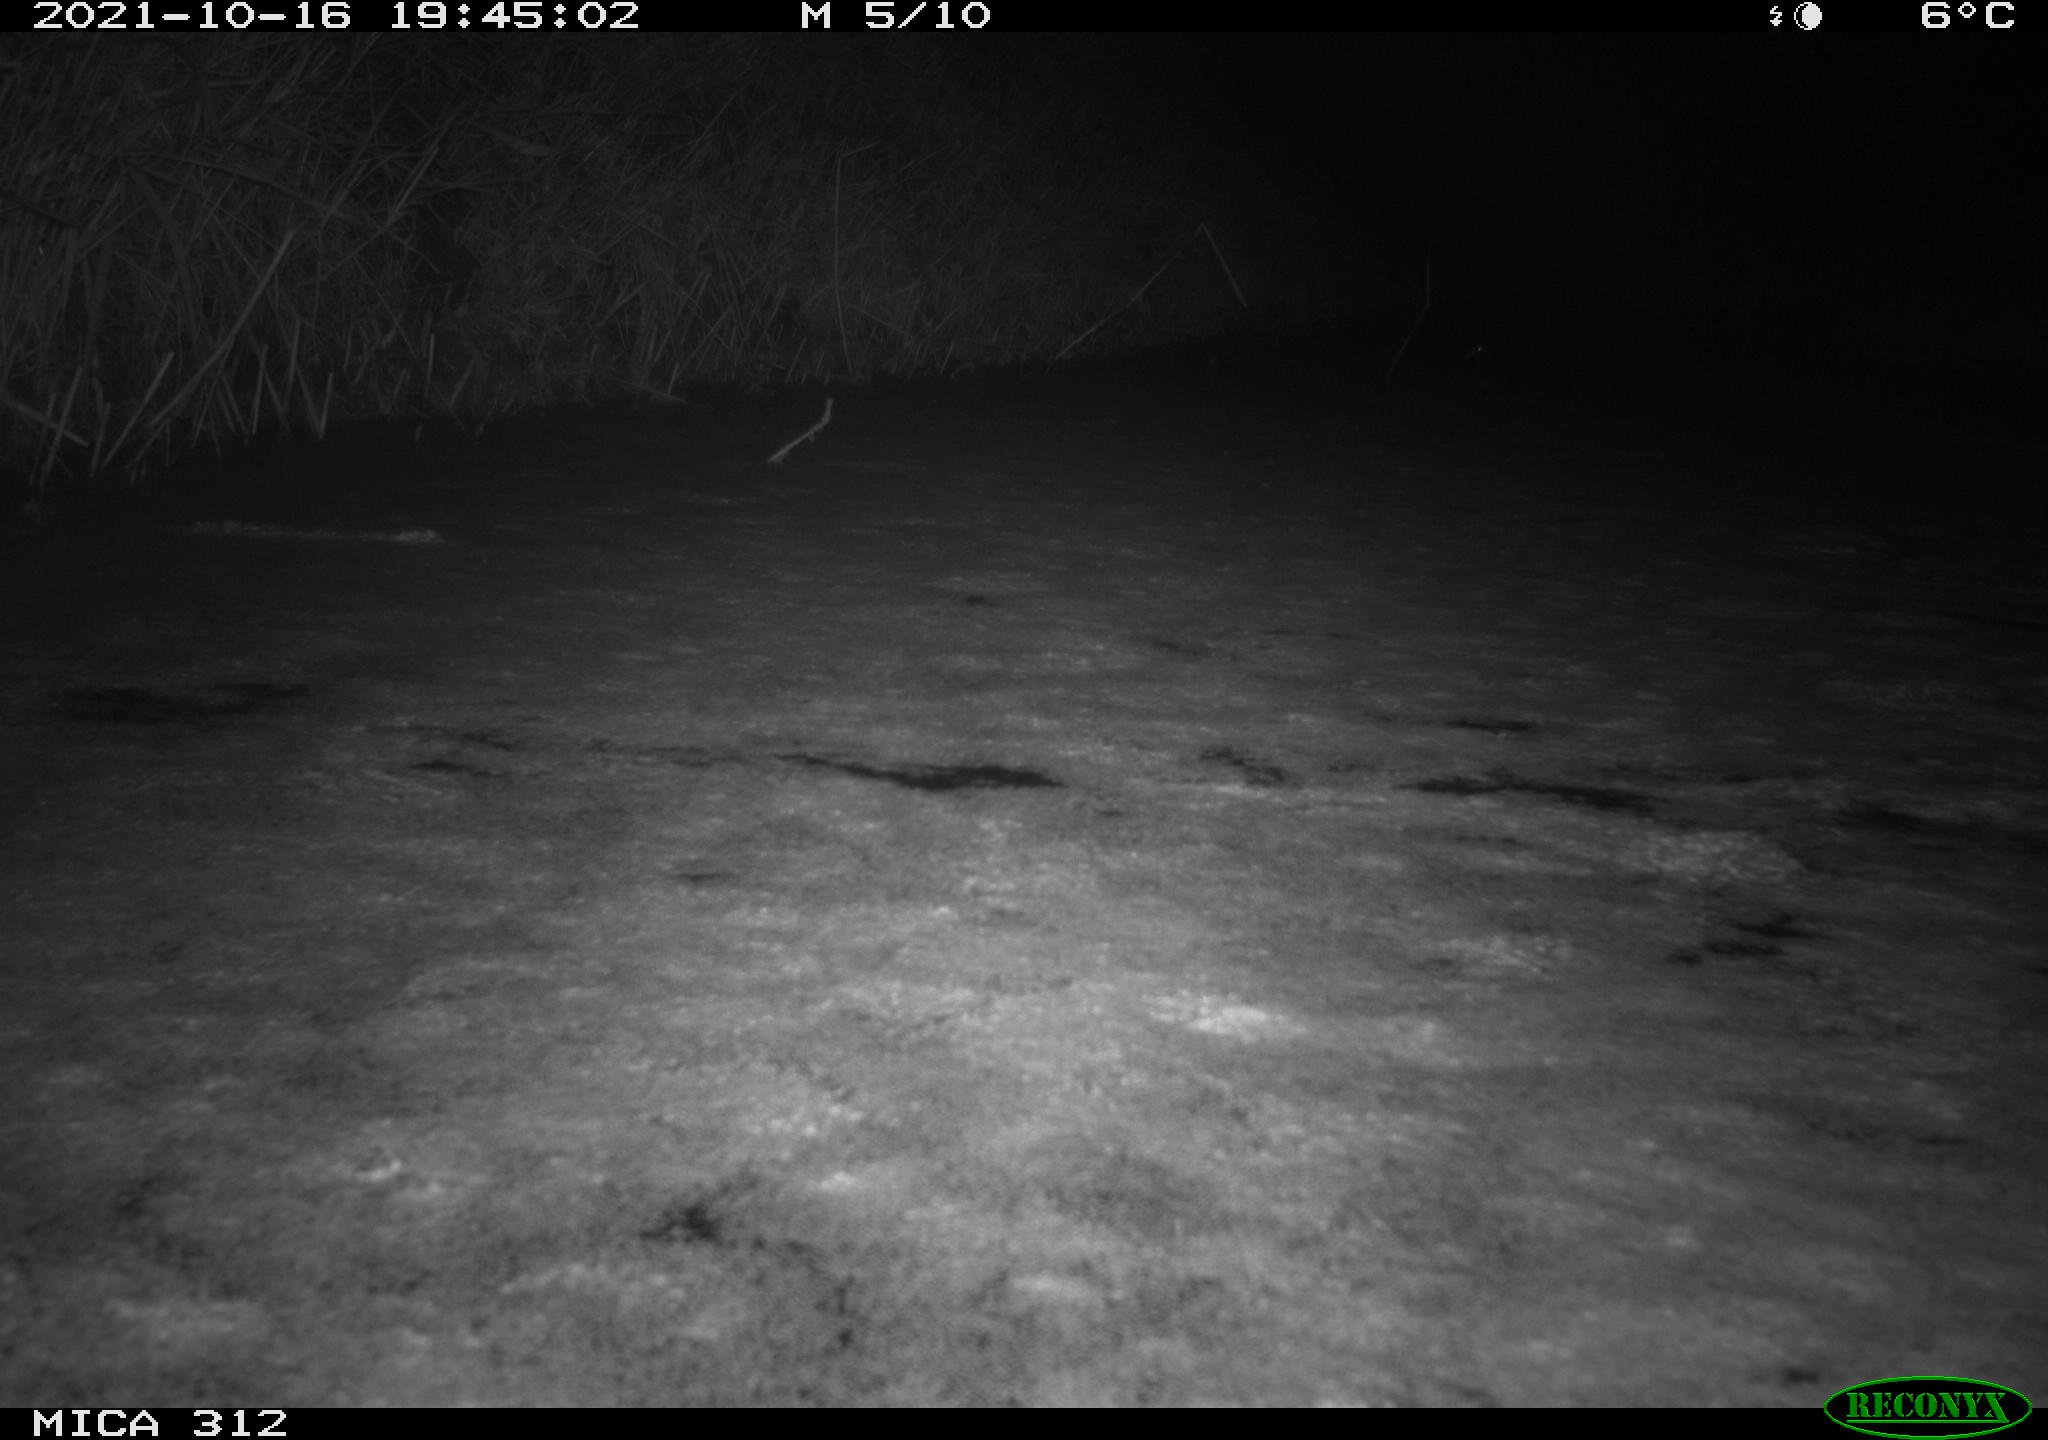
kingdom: Animalia
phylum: Chordata
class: Mammalia
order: Rodentia
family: Muridae
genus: Rattus
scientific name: Rattus norvegicus
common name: Brown rat
